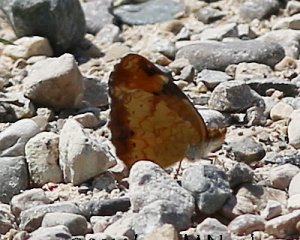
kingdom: Animalia
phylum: Arthropoda
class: Insecta
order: Lepidoptera
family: Nymphalidae
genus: Phyciodes
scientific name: Phyciodes tharos
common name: Pearl Crescent
